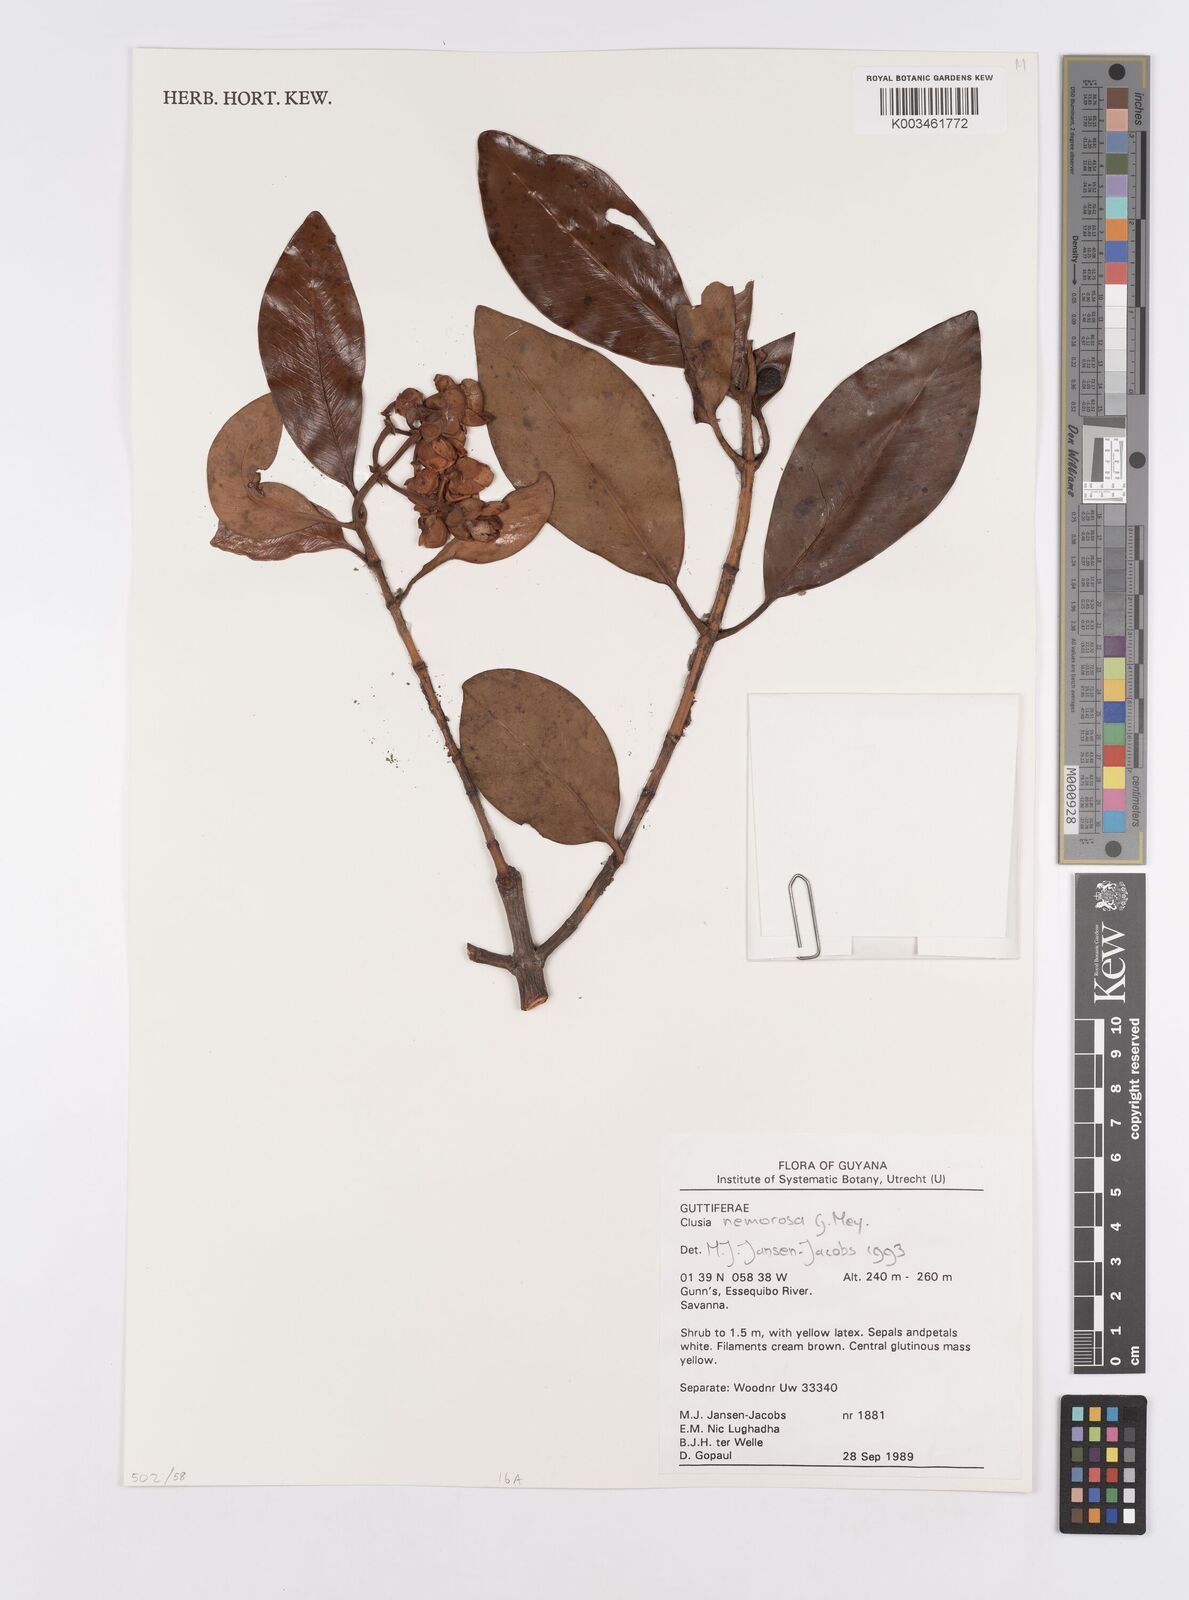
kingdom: Plantae
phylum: Tracheophyta
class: Magnoliopsida
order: Malpighiales
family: Clusiaceae
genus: Clusia
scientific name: Clusia nemorosa
